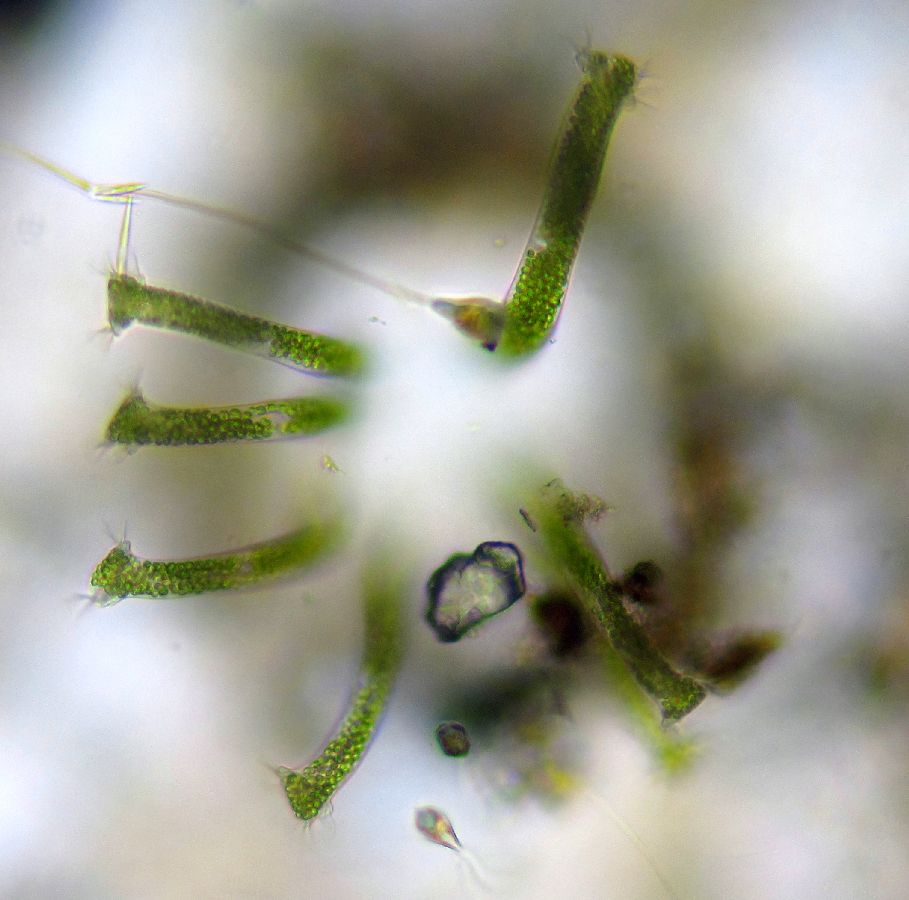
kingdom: Chromista
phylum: Ciliophora
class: Oligohymenophorea
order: Peritrichida
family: Ophrydiidae
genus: Ophrydium
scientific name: Ophrydium versatile
